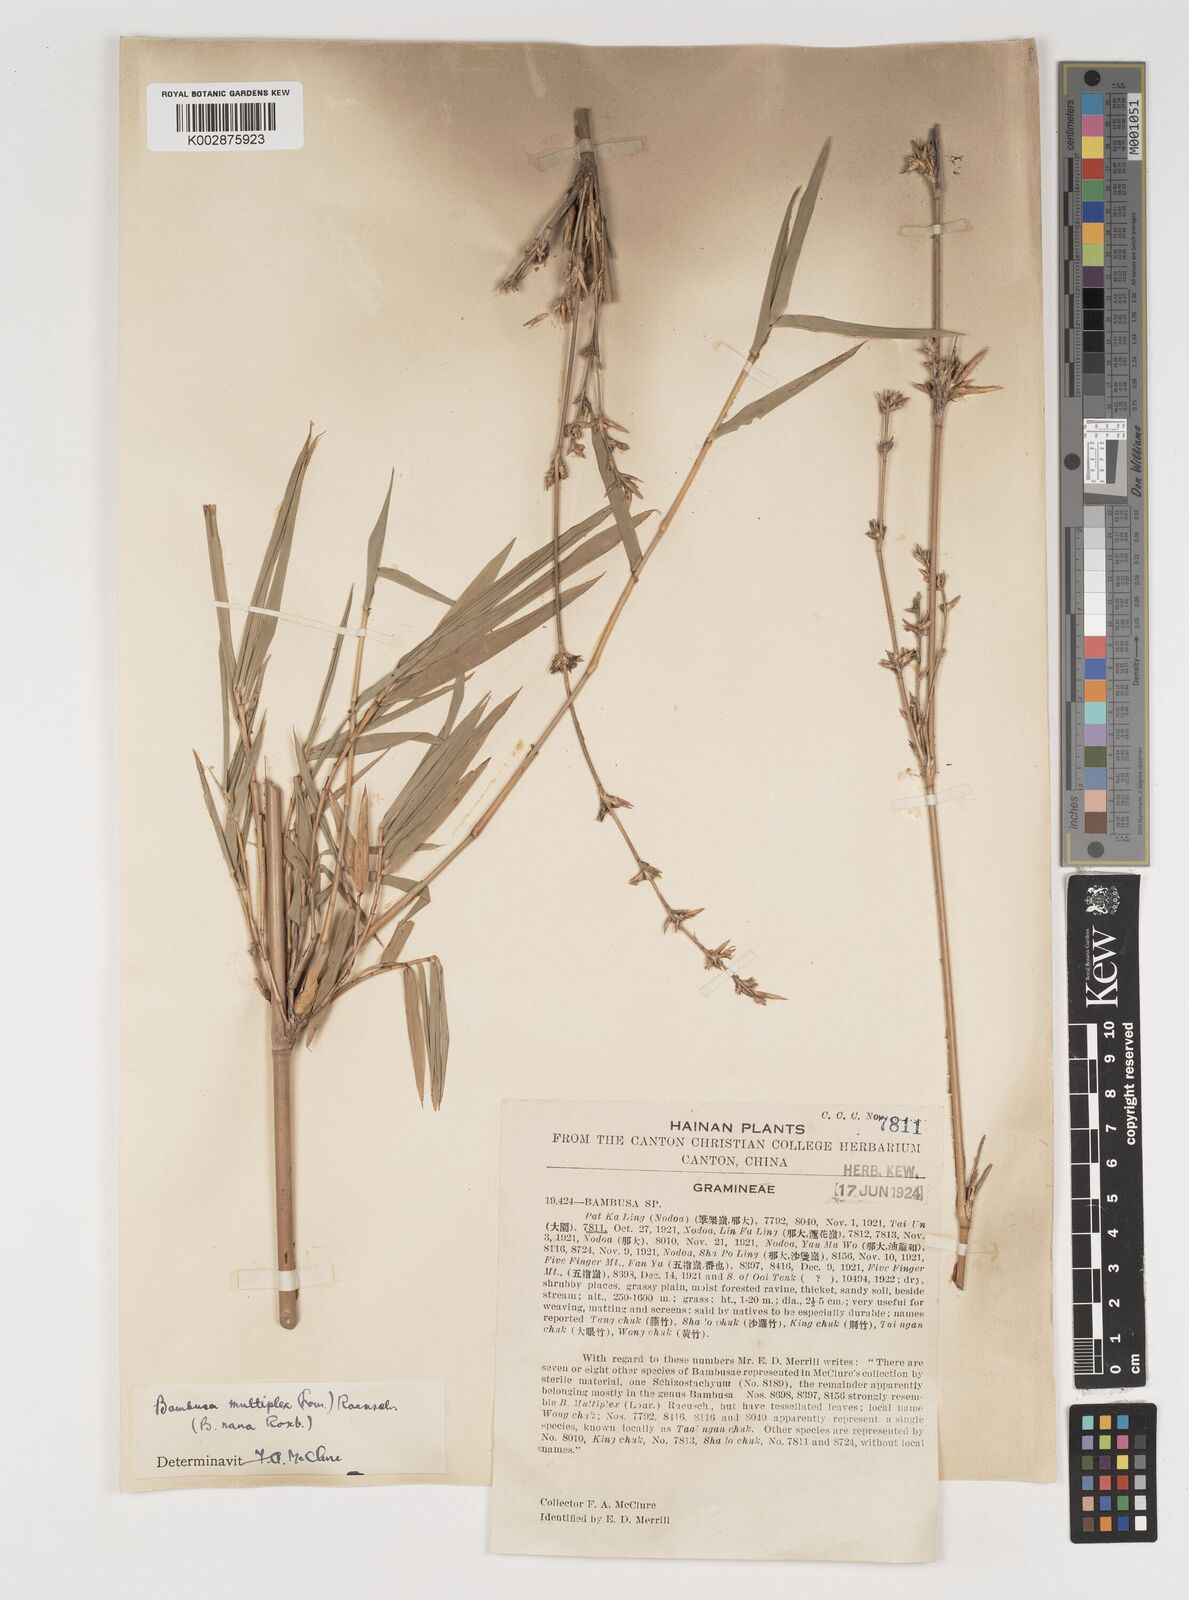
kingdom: Plantae
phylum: Tracheophyta
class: Liliopsida
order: Poales
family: Poaceae
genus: Bambusa
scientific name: Bambusa multiplex
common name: Hedge bamboo
